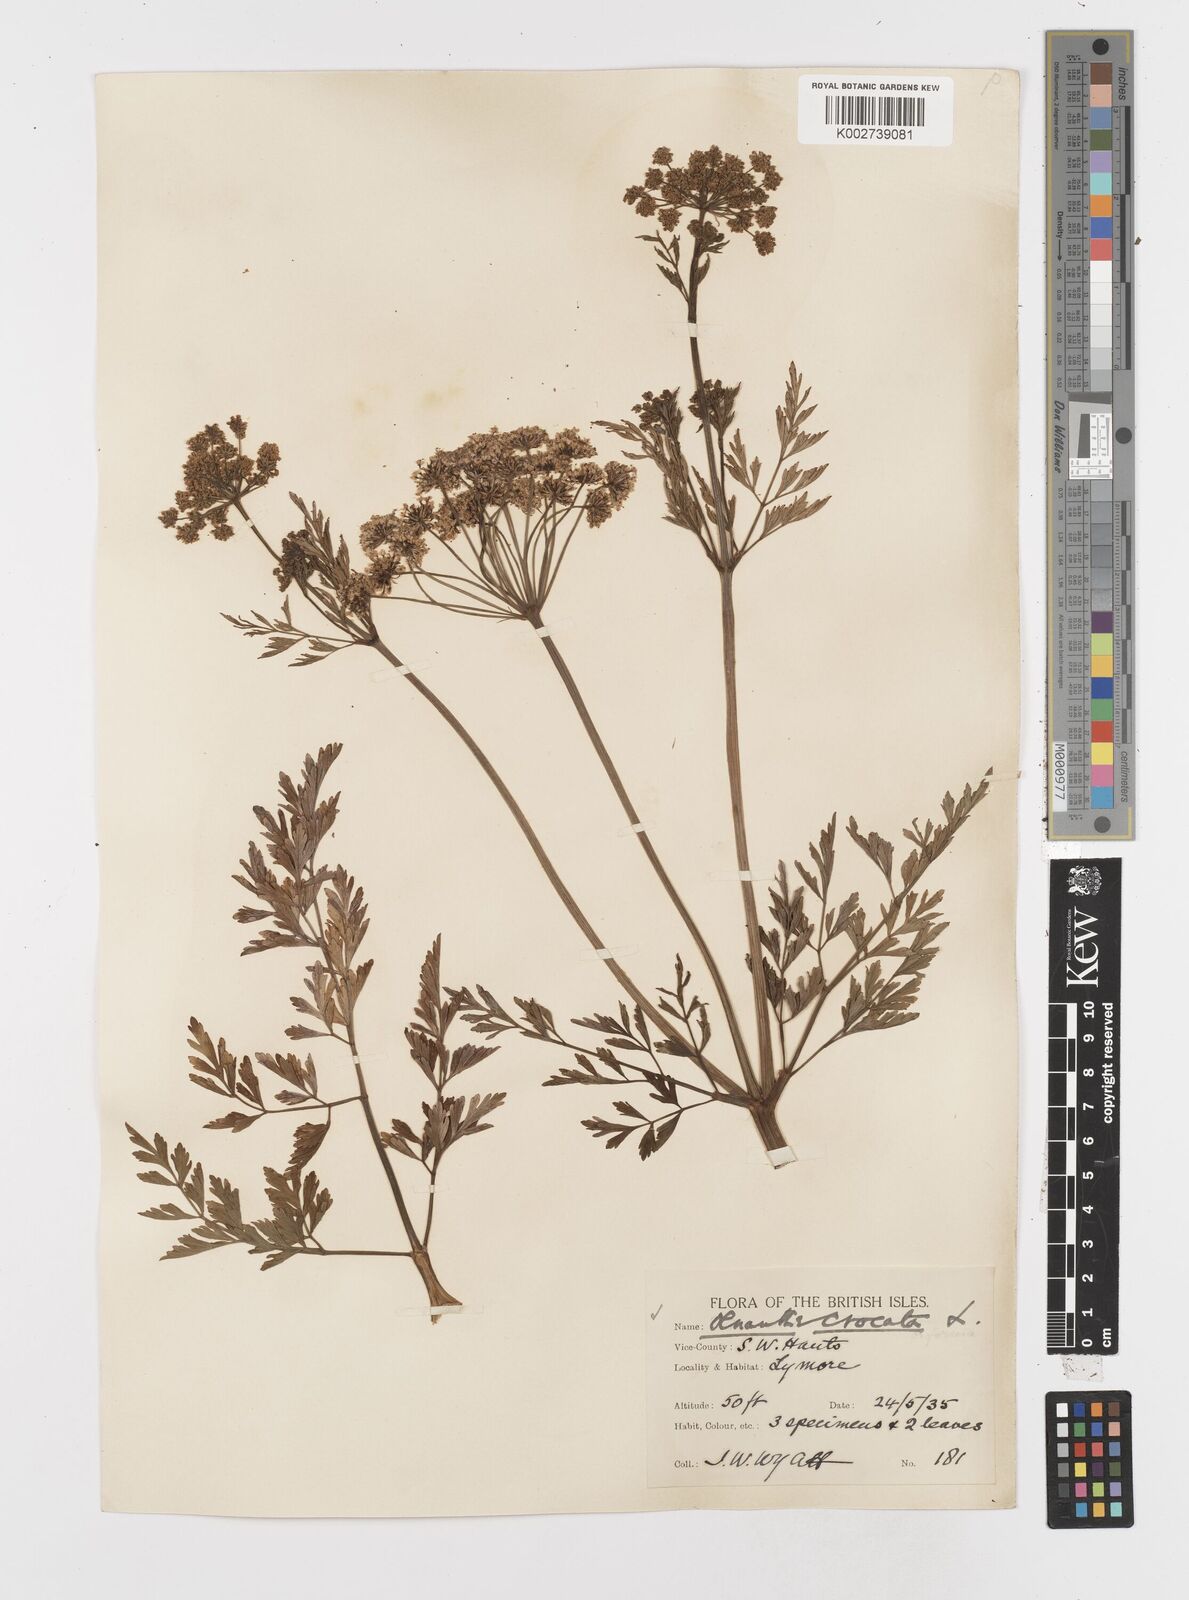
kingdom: Plantae
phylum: Tracheophyta
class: Magnoliopsida
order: Apiales
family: Apiaceae
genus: Oenanthe
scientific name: Oenanthe crocata
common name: Hemlock water-dropwort
